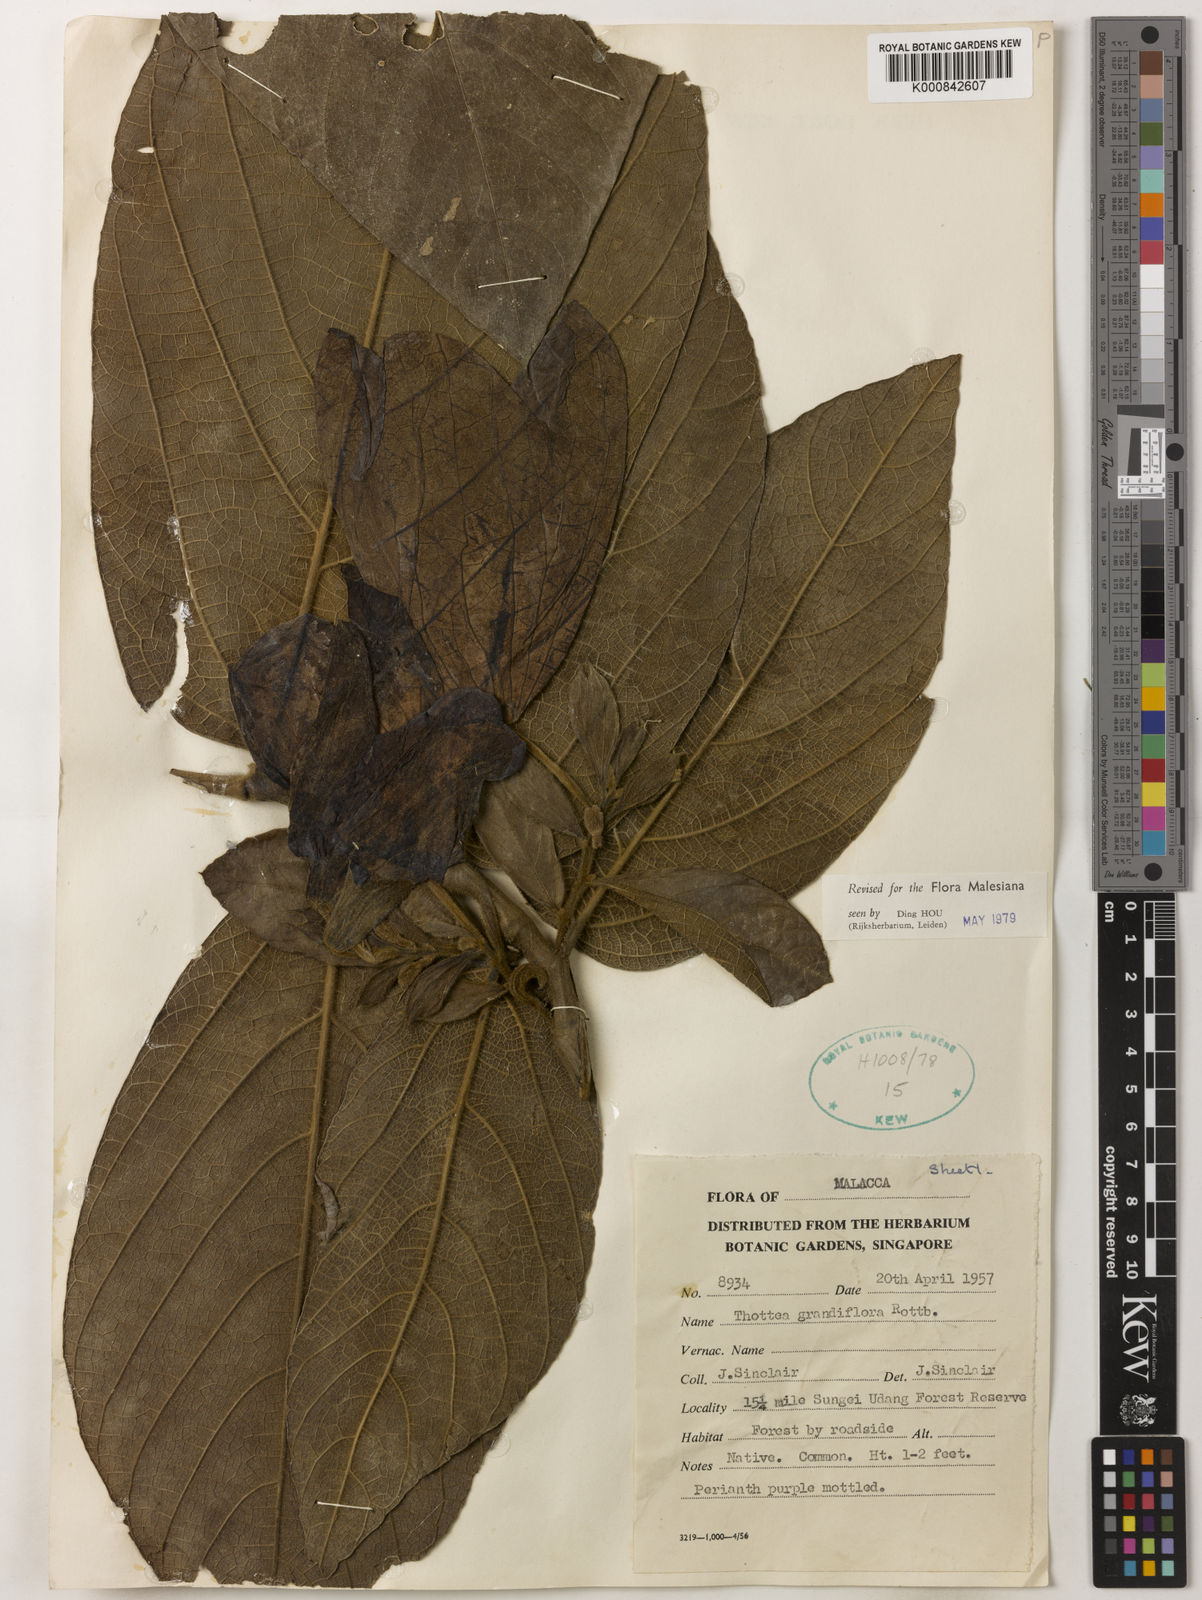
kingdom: Plantae
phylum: Tracheophyta
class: Magnoliopsida
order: Piperales
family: Aristolochiaceae
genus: Thottea
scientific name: Thottea grandiflora
